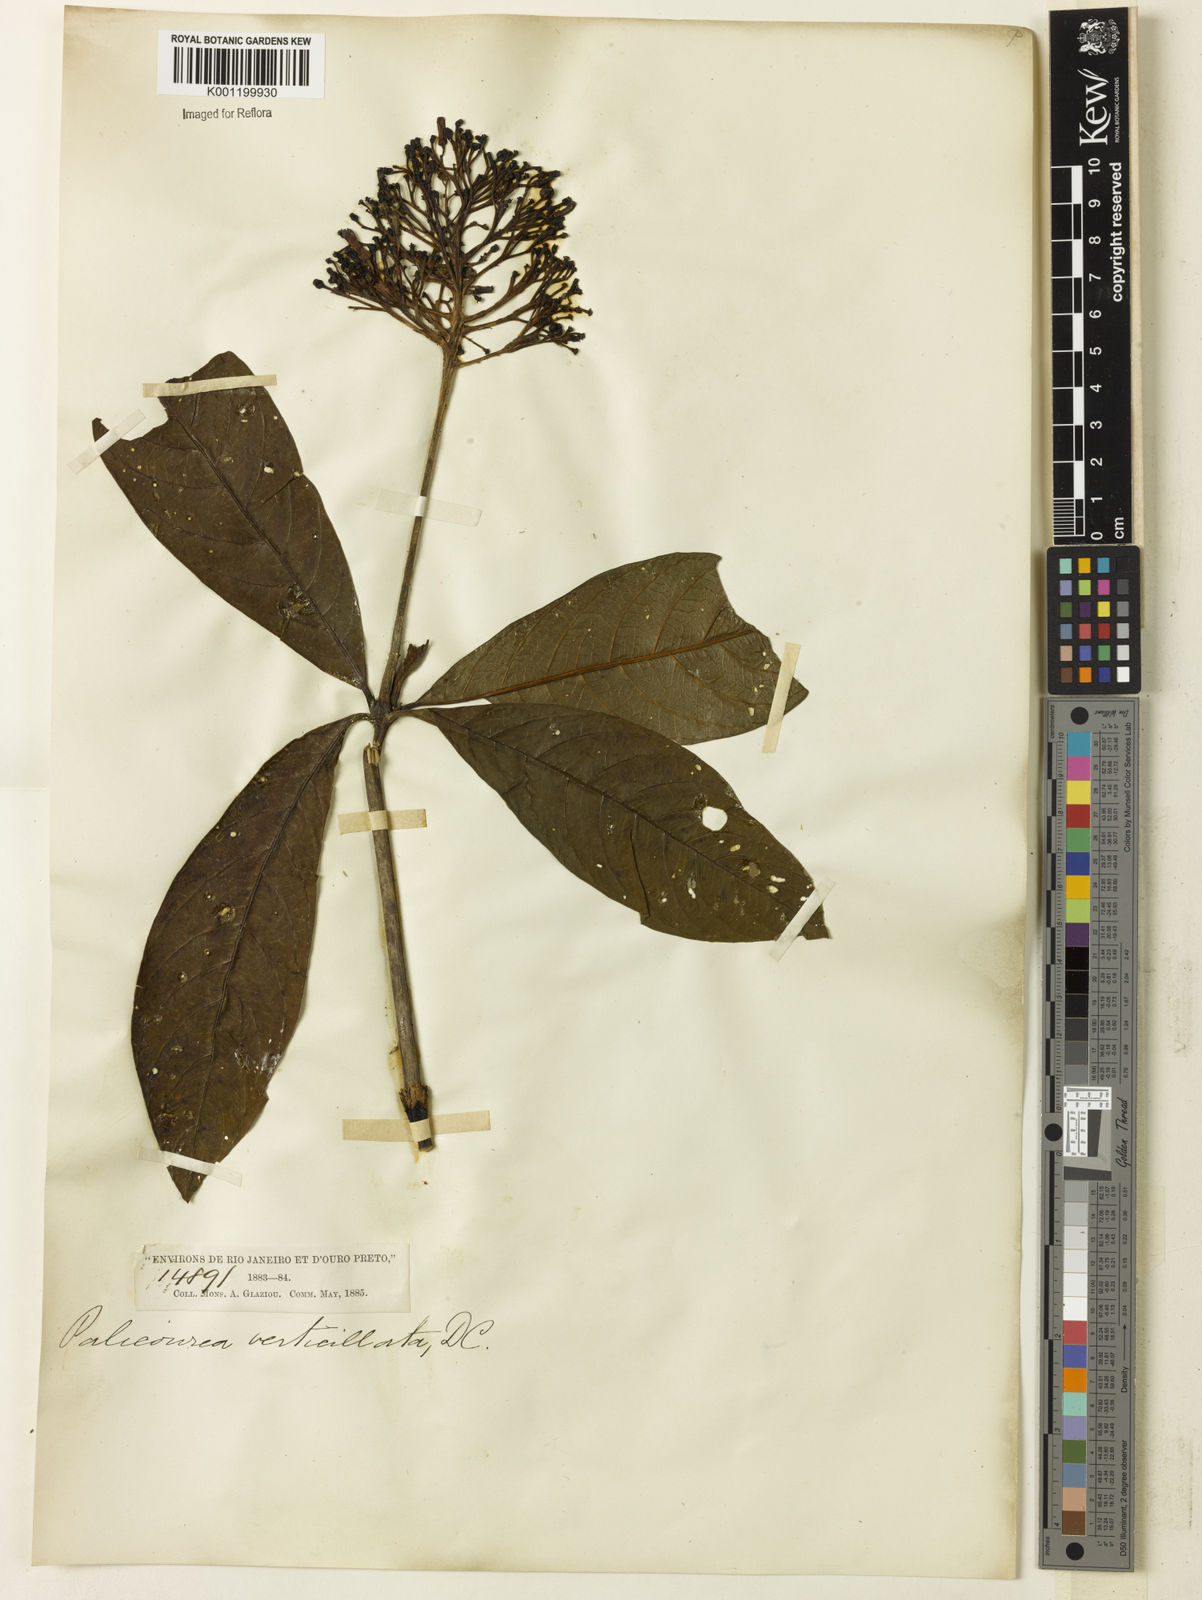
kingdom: Plantae
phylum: Tracheophyta
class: Magnoliopsida
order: Gentianales
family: Rubiaceae
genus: Palicourea
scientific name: Palicourea tetraphylla
